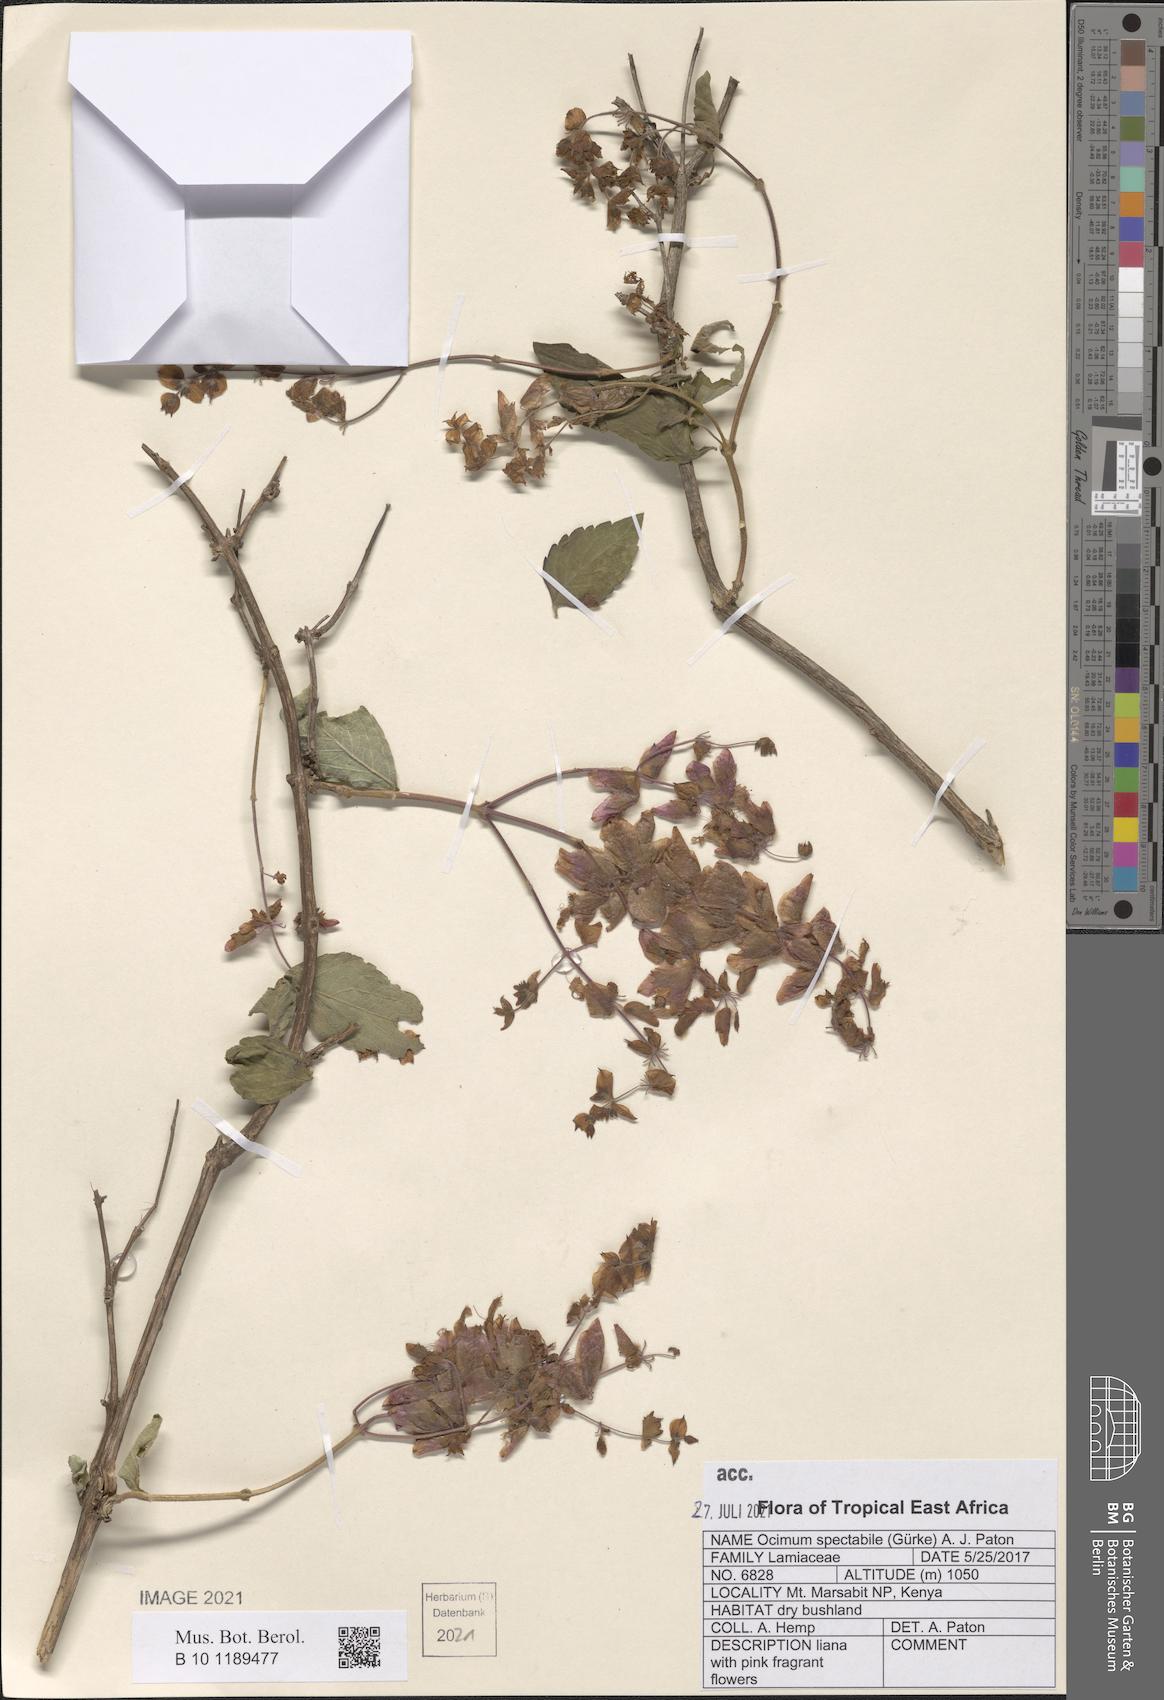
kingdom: Plantae
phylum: Tracheophyta
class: Magnoliopsida
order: Lamiales
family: Lamiaceae
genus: Ocimum
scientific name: Ocimum spectabile
